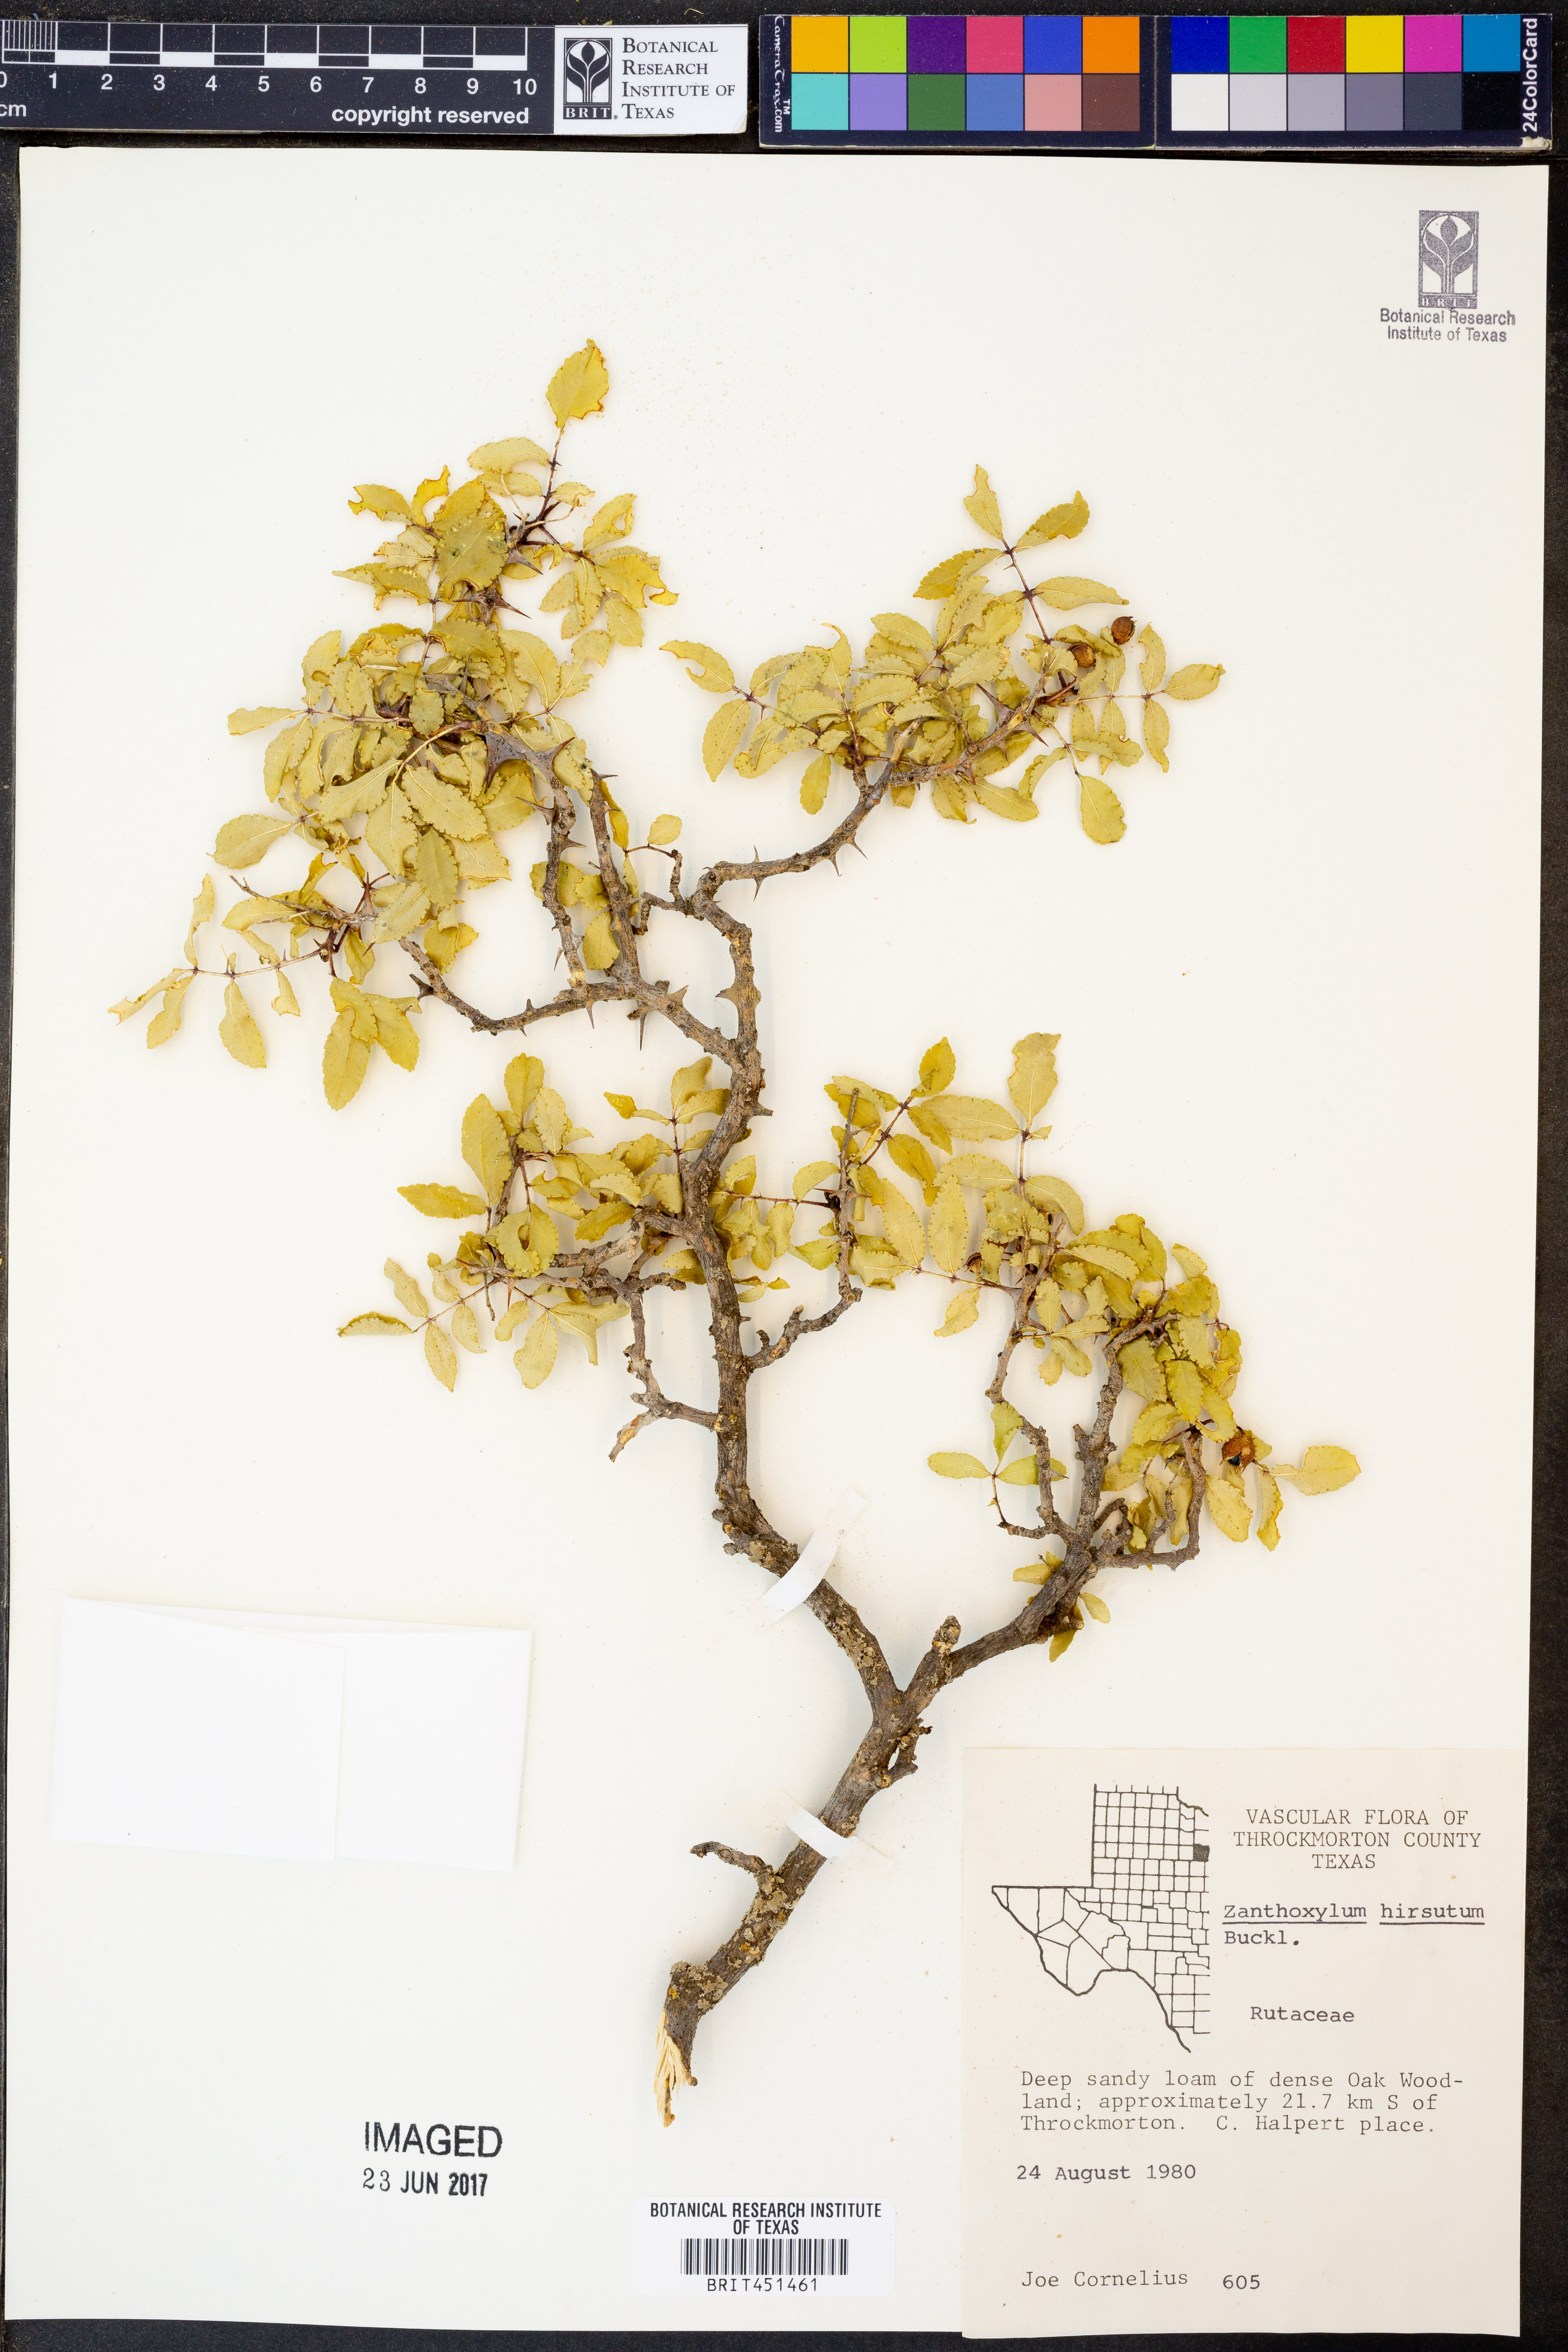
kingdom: Plantae
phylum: Tracheophyta
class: Magnoliopsida
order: Sapindales
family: Rutaceae
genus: Zanthoxylum
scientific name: Zanthoxylum clava-herculis
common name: Hercules'-club
